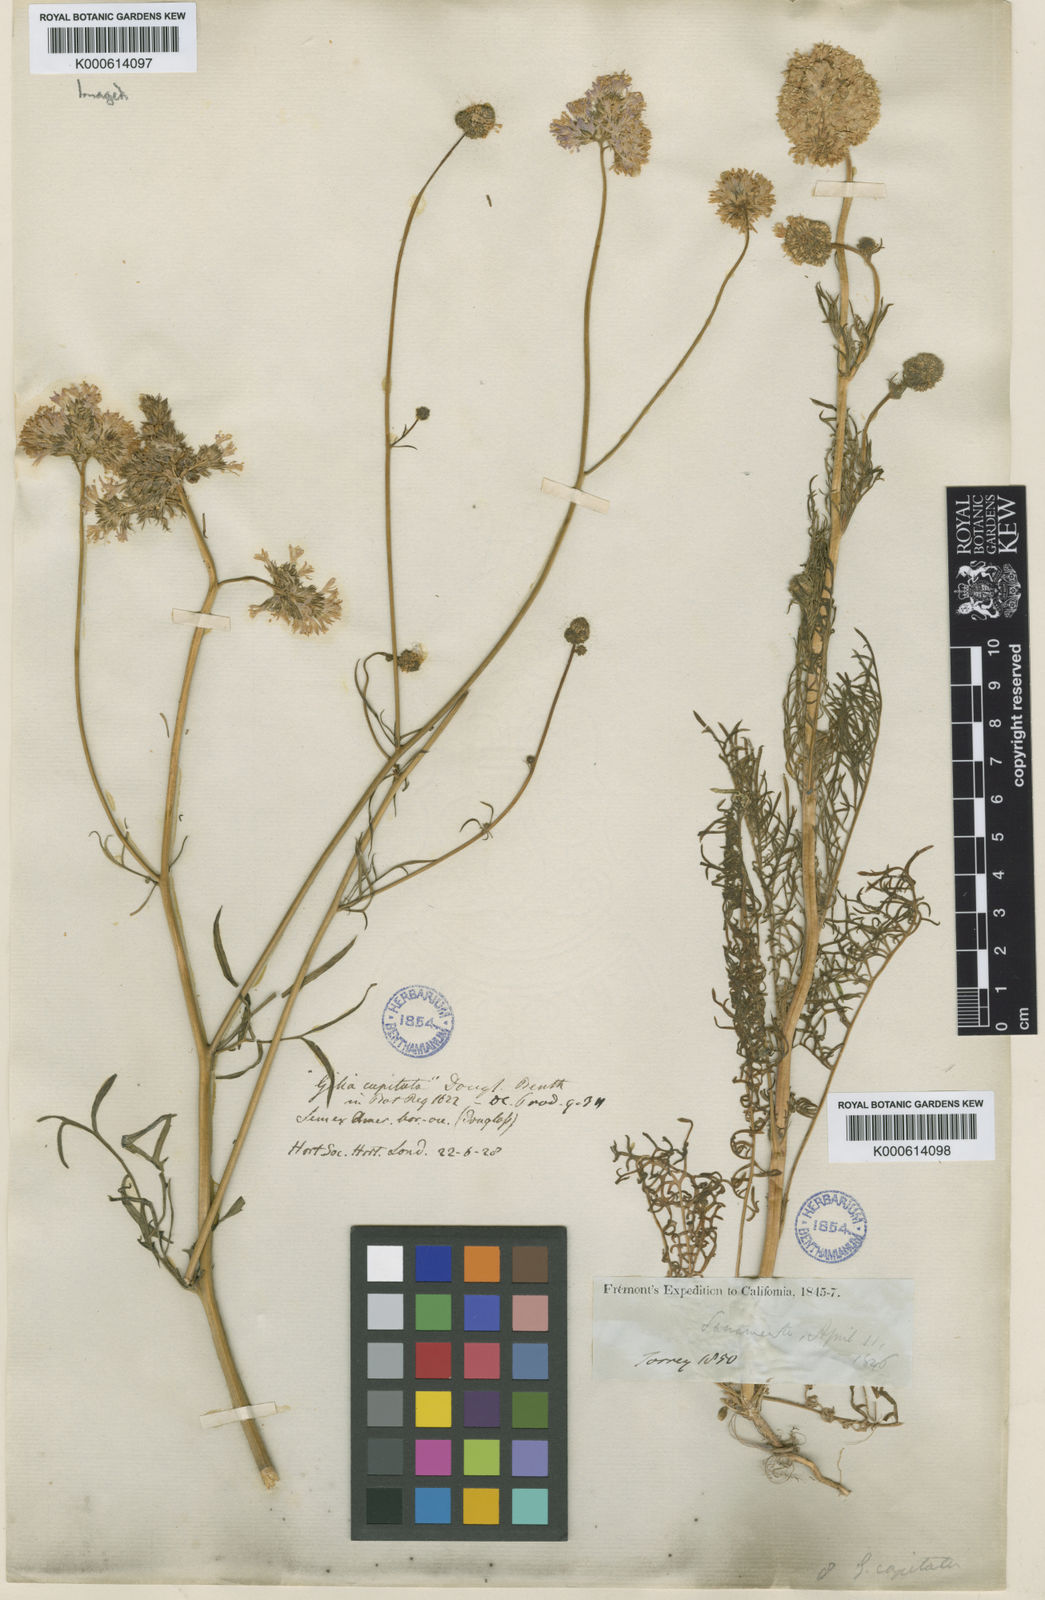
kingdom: Plantae
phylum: Tracheophyta
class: Magnoliopsida
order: Ericales
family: Polemoniaceae
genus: Gilia
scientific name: Gilia capitata
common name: Bluehead gilia
